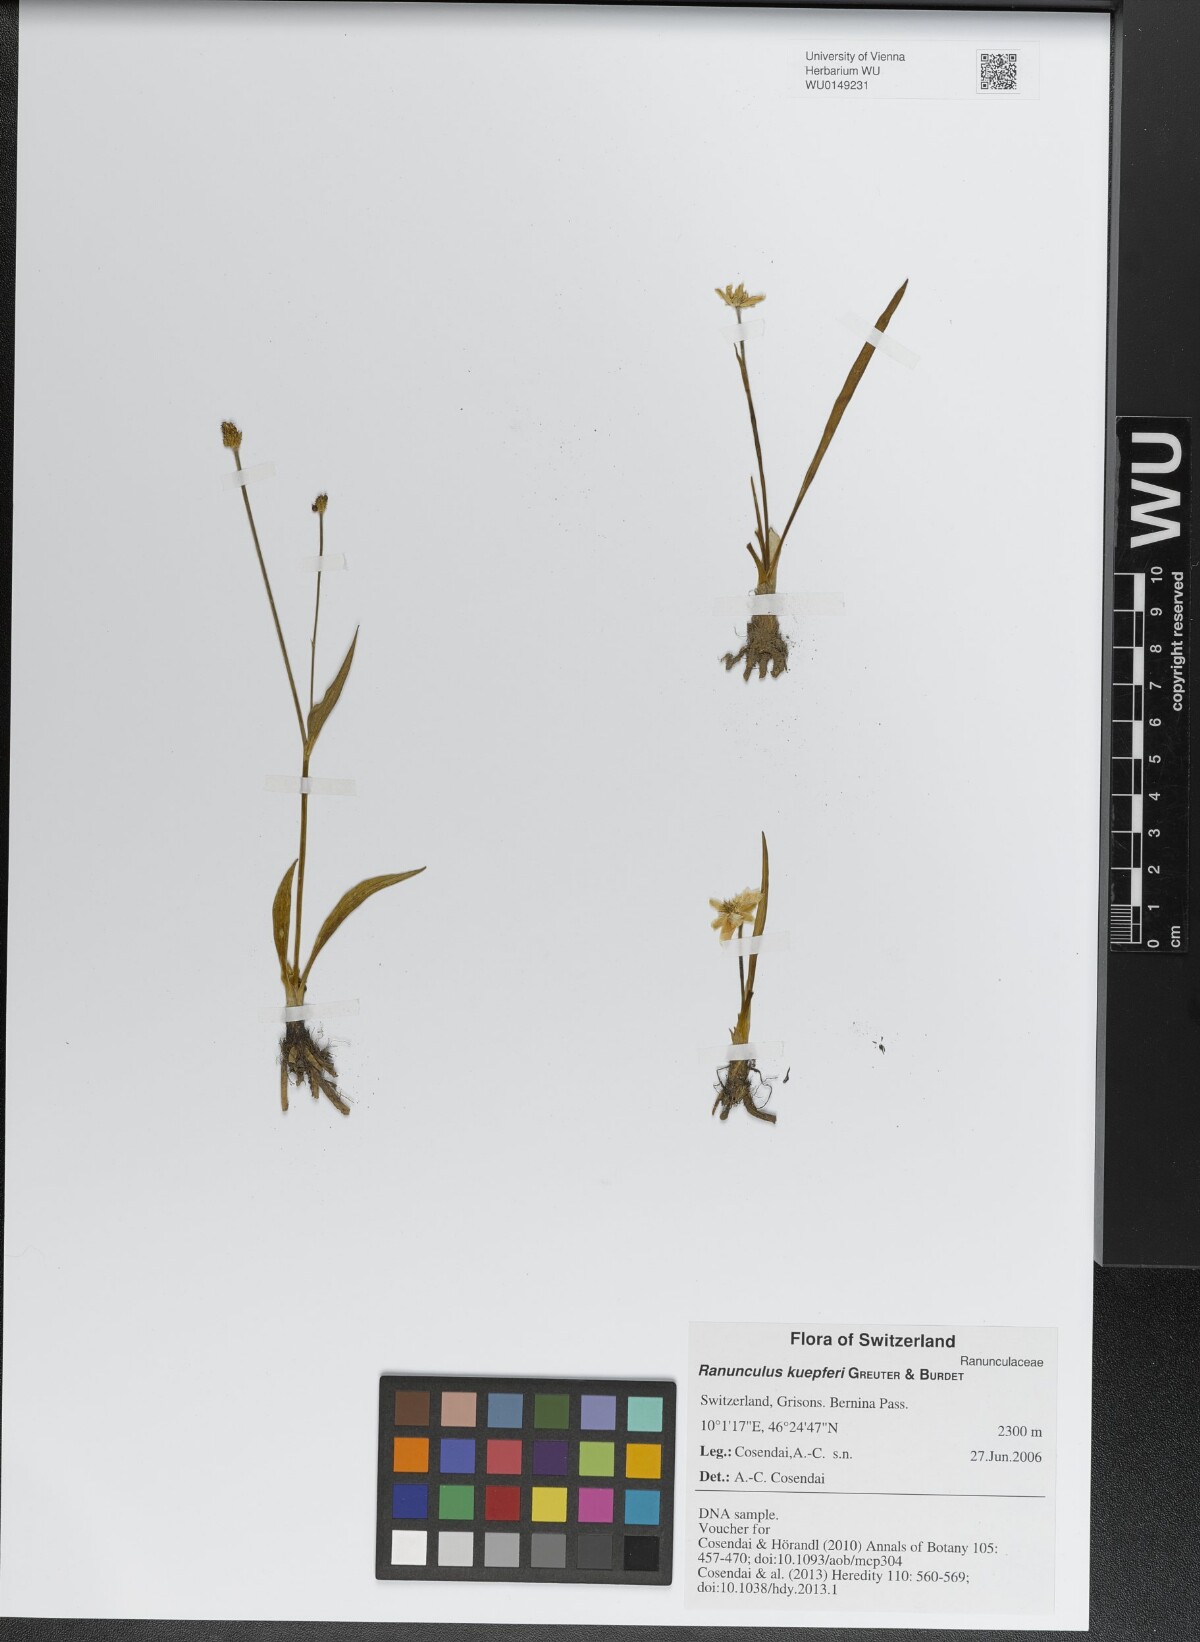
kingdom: Plantae
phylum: Tracheophyta
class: Magnoliopsida
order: Ranunculales
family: Ranunculaceae
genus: Ranunculus
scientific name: Ranunculus kuepferi
